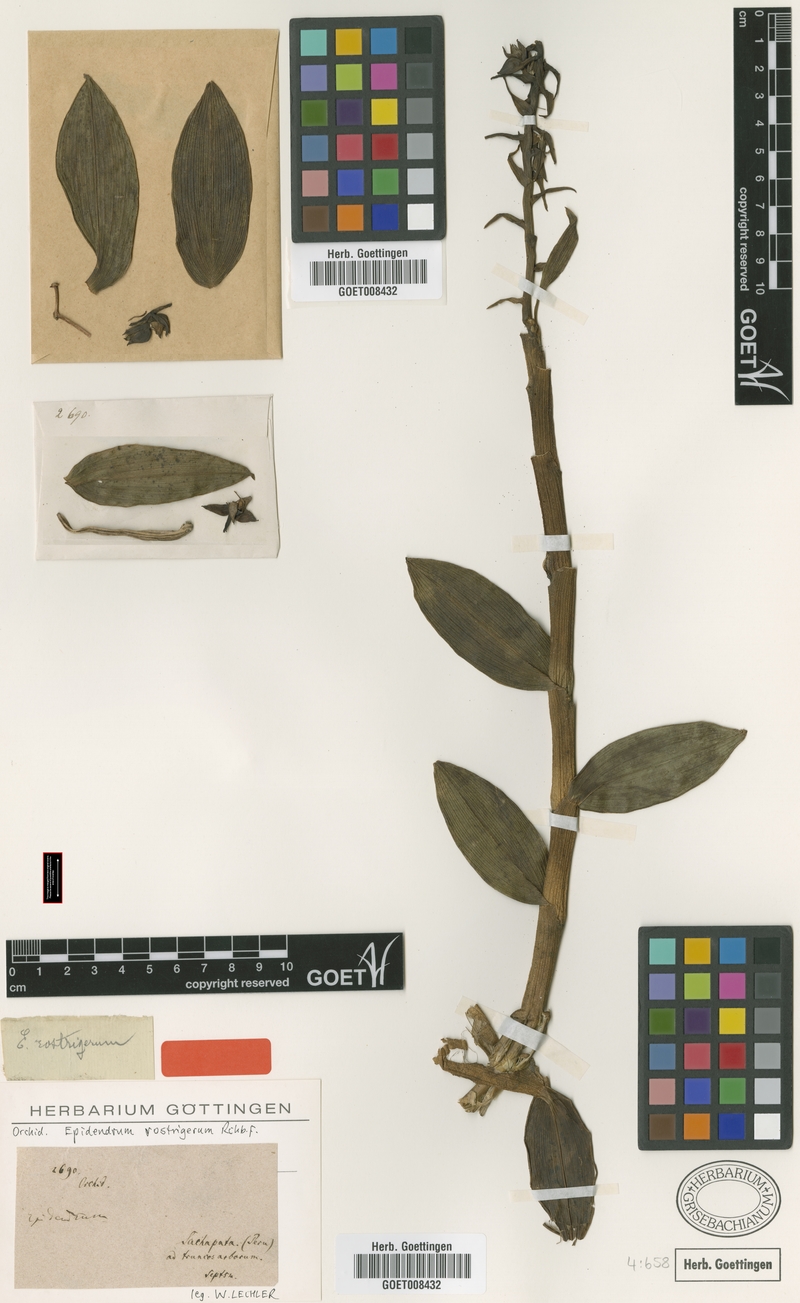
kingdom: Plantae
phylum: Tracheophyta
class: Liliopsida
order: Asparagales
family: Orchidaceae
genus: Epidendrum
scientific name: Epidendrum rostrigerum
